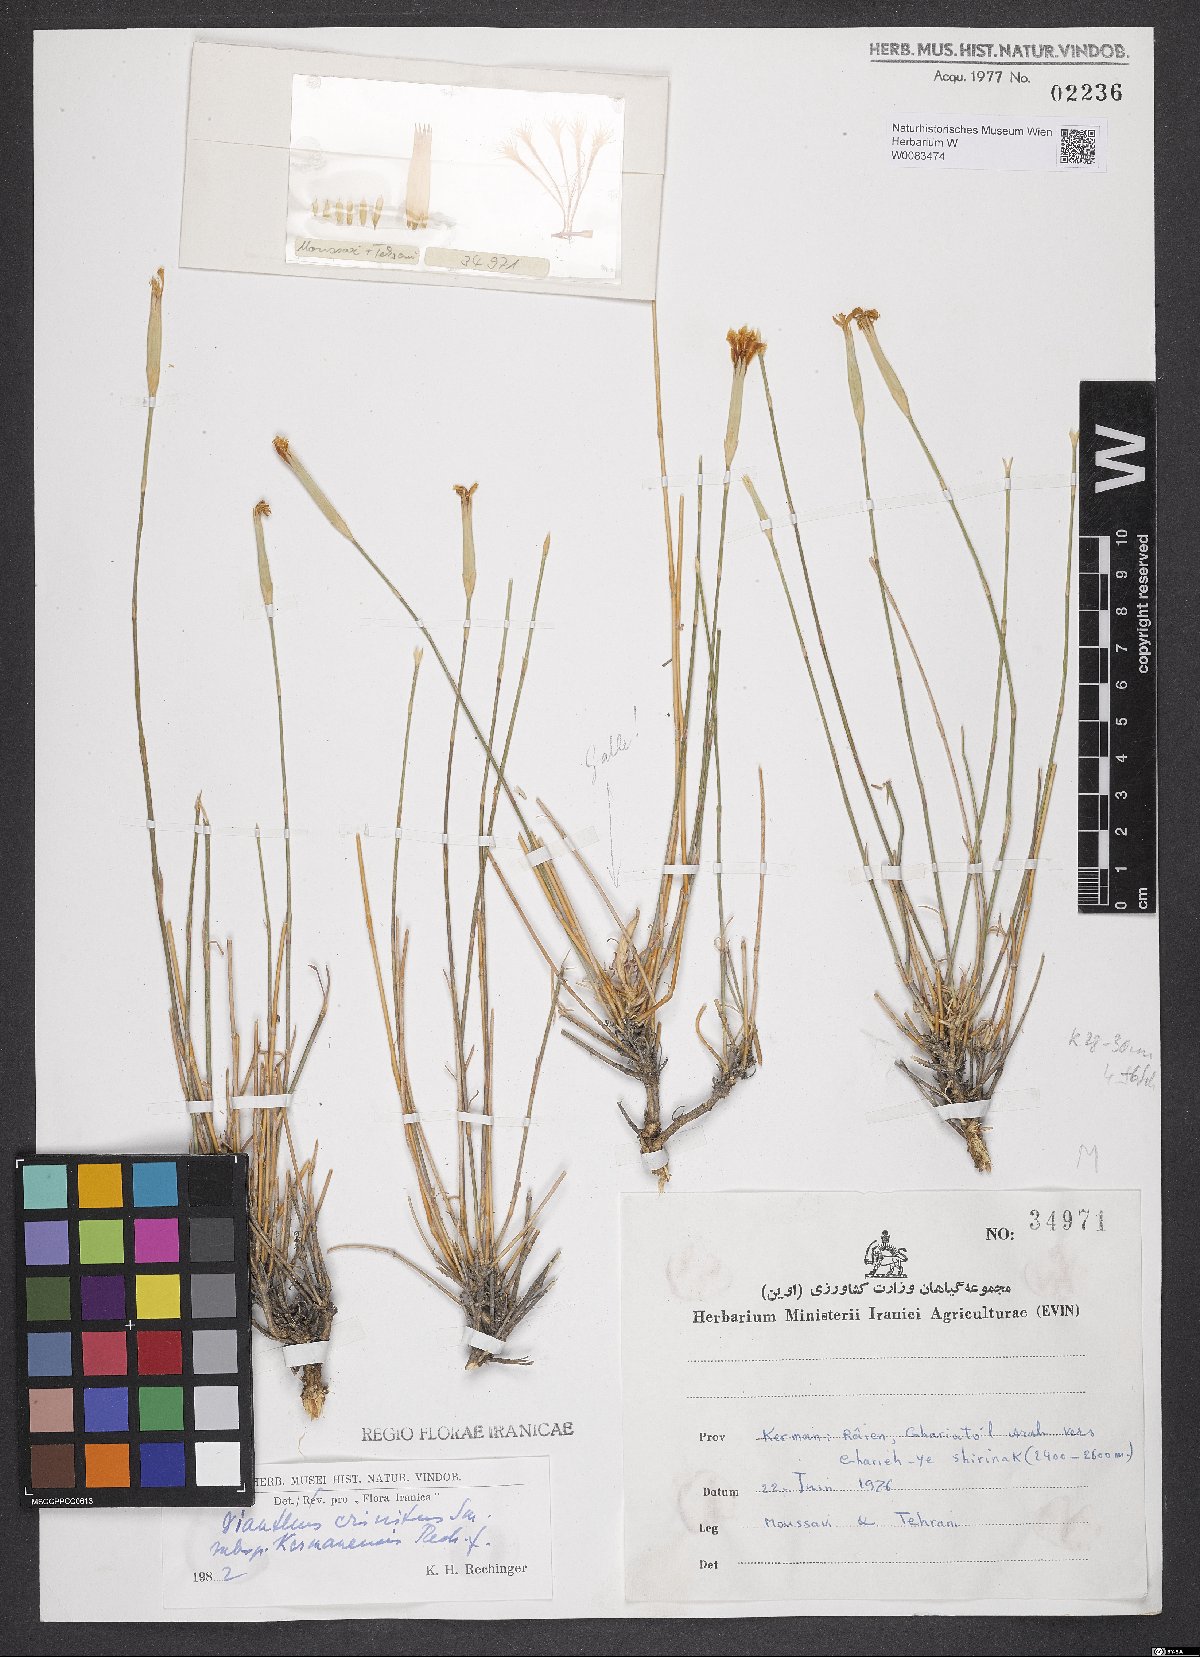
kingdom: Plantae
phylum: Tracheophyta
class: Magnoliopsida
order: Caryophyllales
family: Caryophyllaceae
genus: Dianthus
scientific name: Dianthus crinitus
